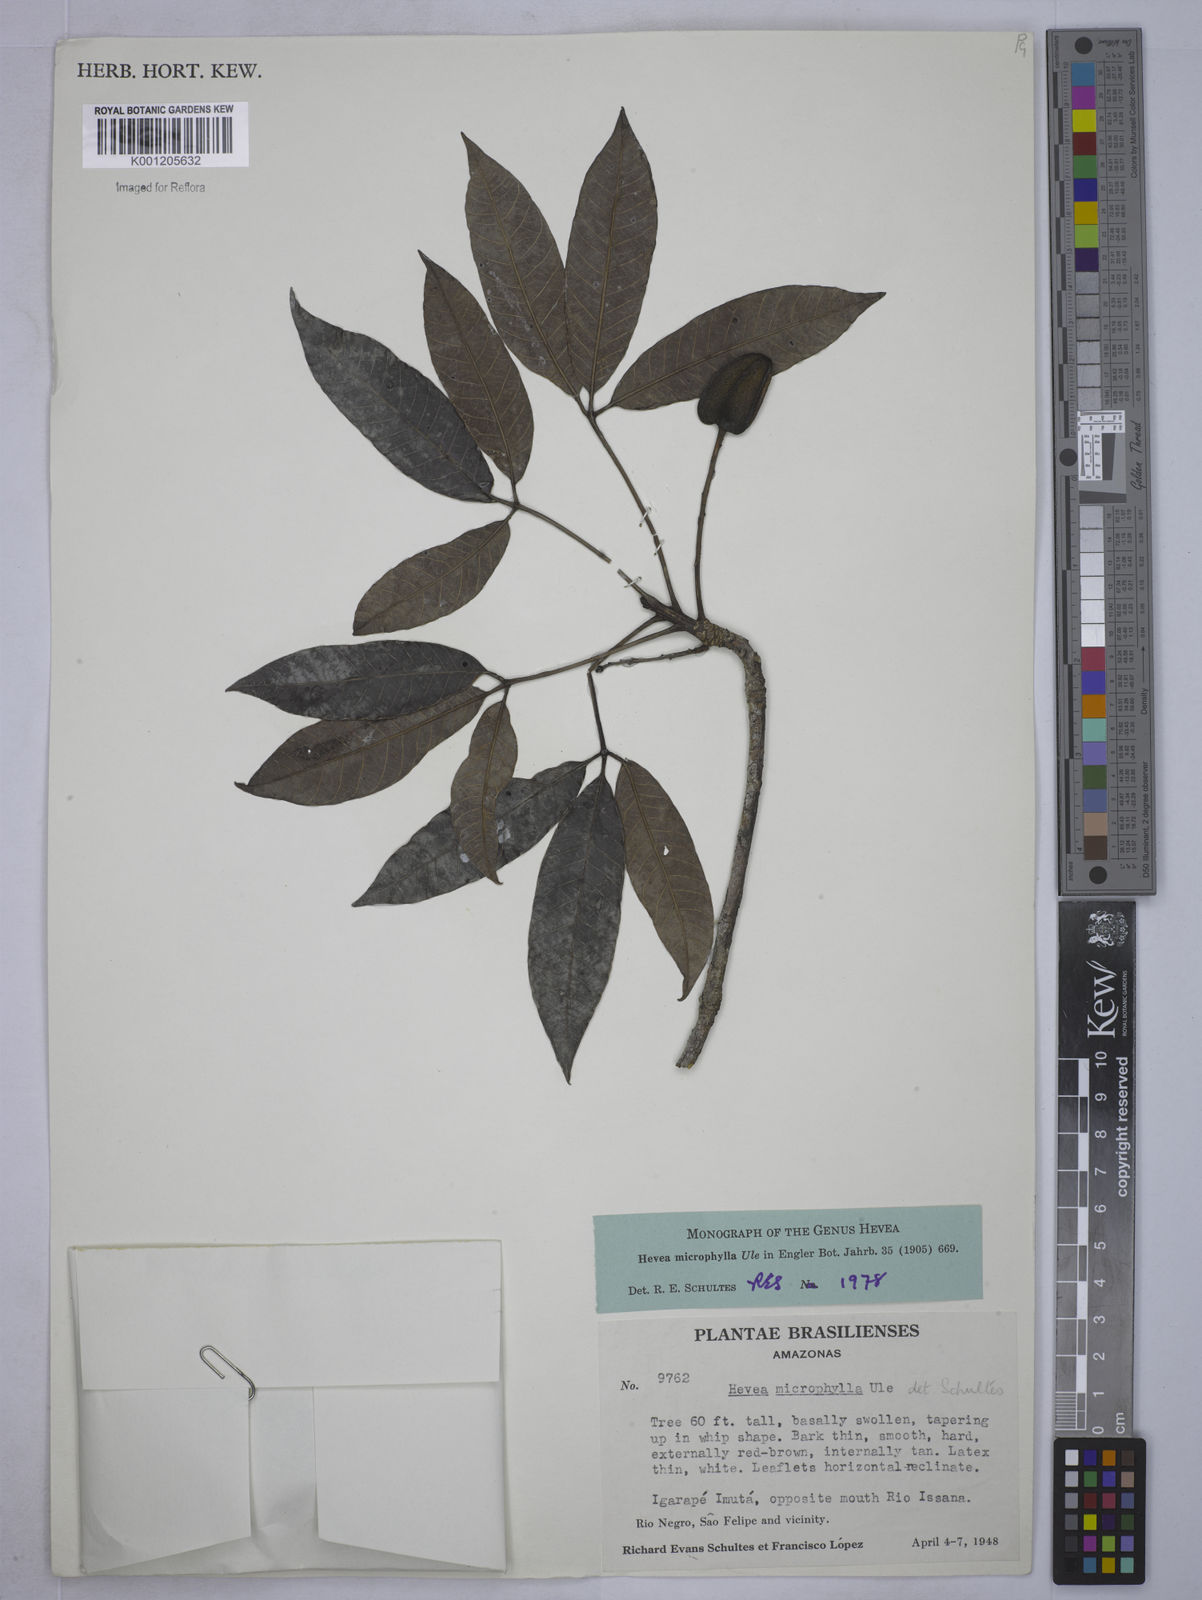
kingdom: Plantae
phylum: Tracheophyta
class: Magnoliopsida
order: Malpighiales
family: Euphorbiaceae
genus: Hevea
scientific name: Hevea microphylla
